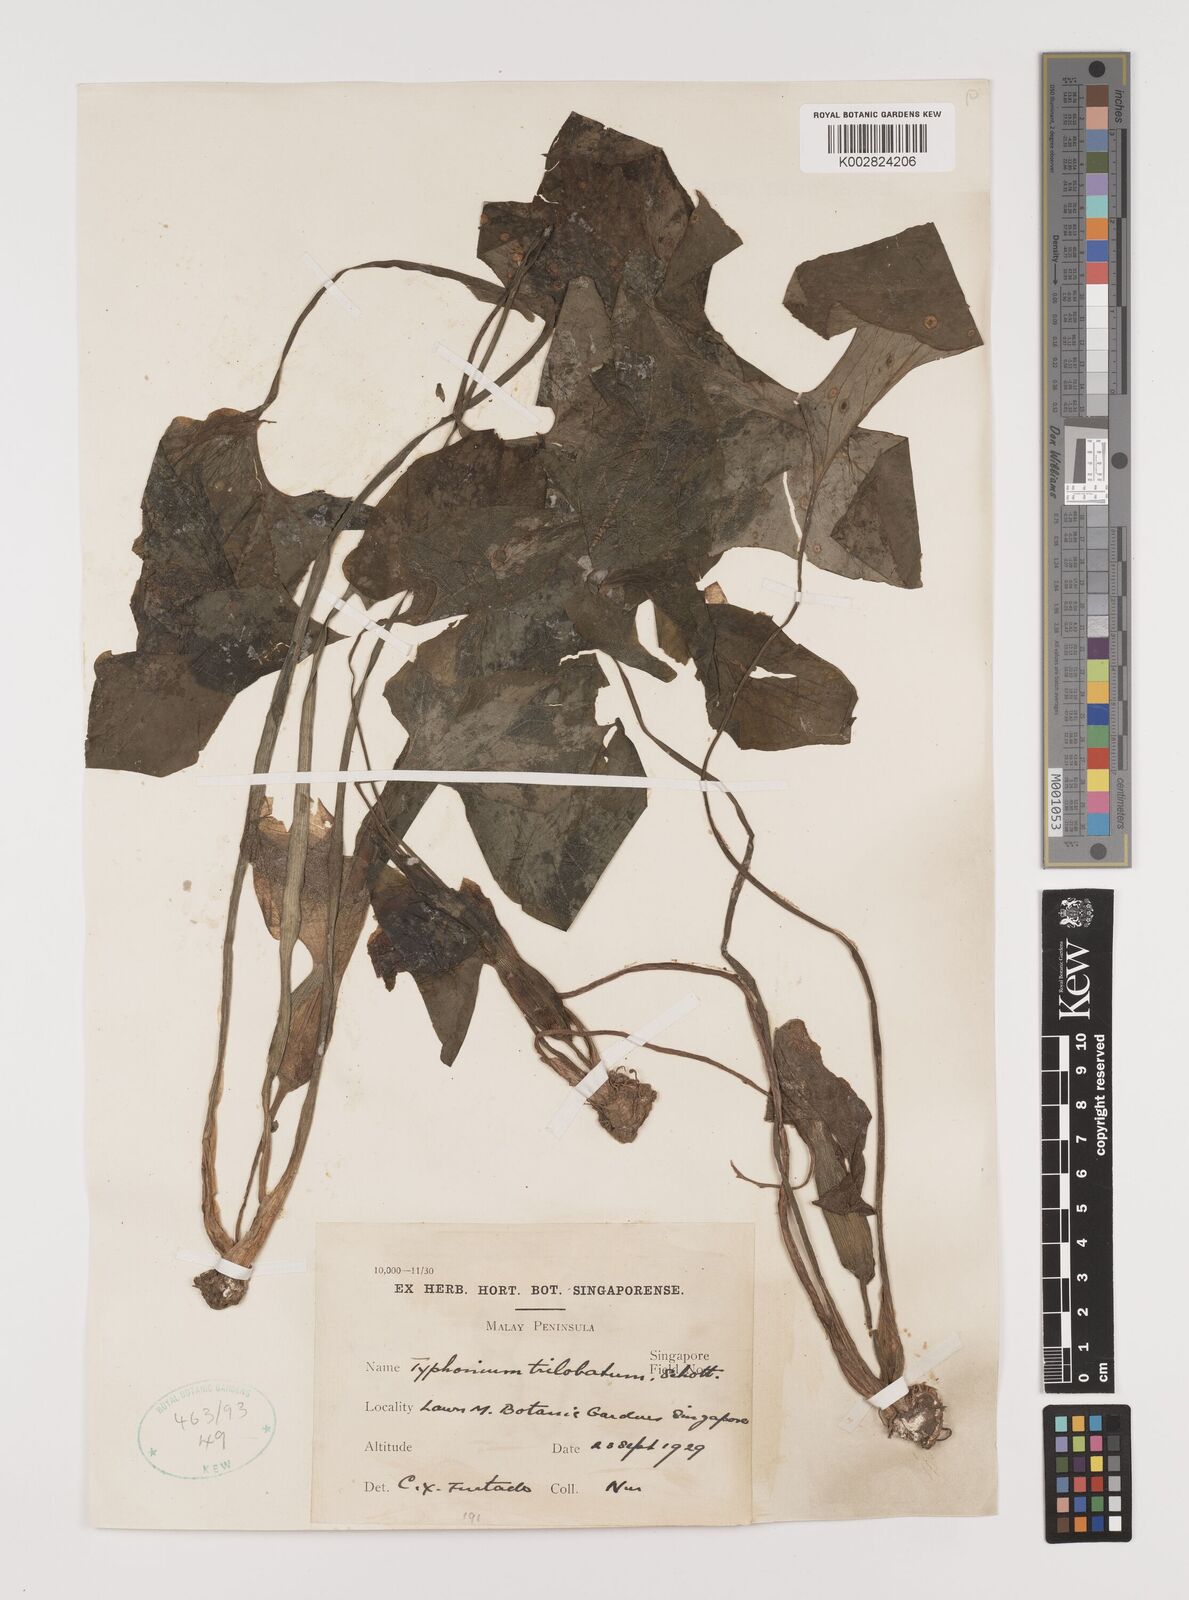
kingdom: Plantae
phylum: Tracheophyta
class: Liliopsida
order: Alismatales
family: Araceae
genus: Typhonium
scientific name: Typhonium trilobatum
